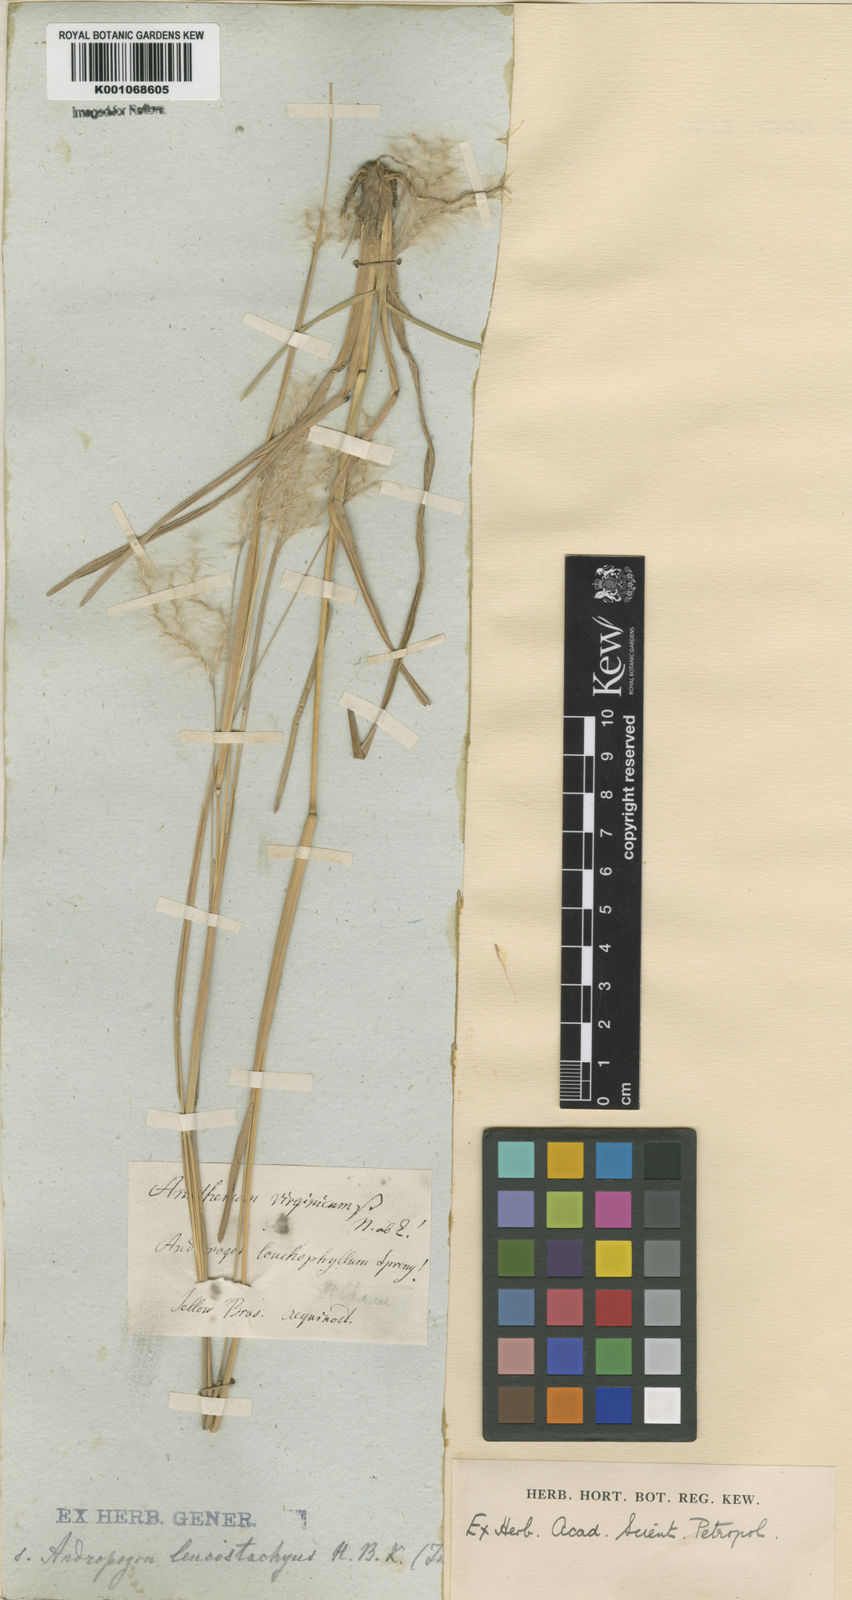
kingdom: Plantae
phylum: Tracheophyta
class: Liliopsida
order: Poales
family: Poaceae
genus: Andropogon
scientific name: Andropogon selloanus
